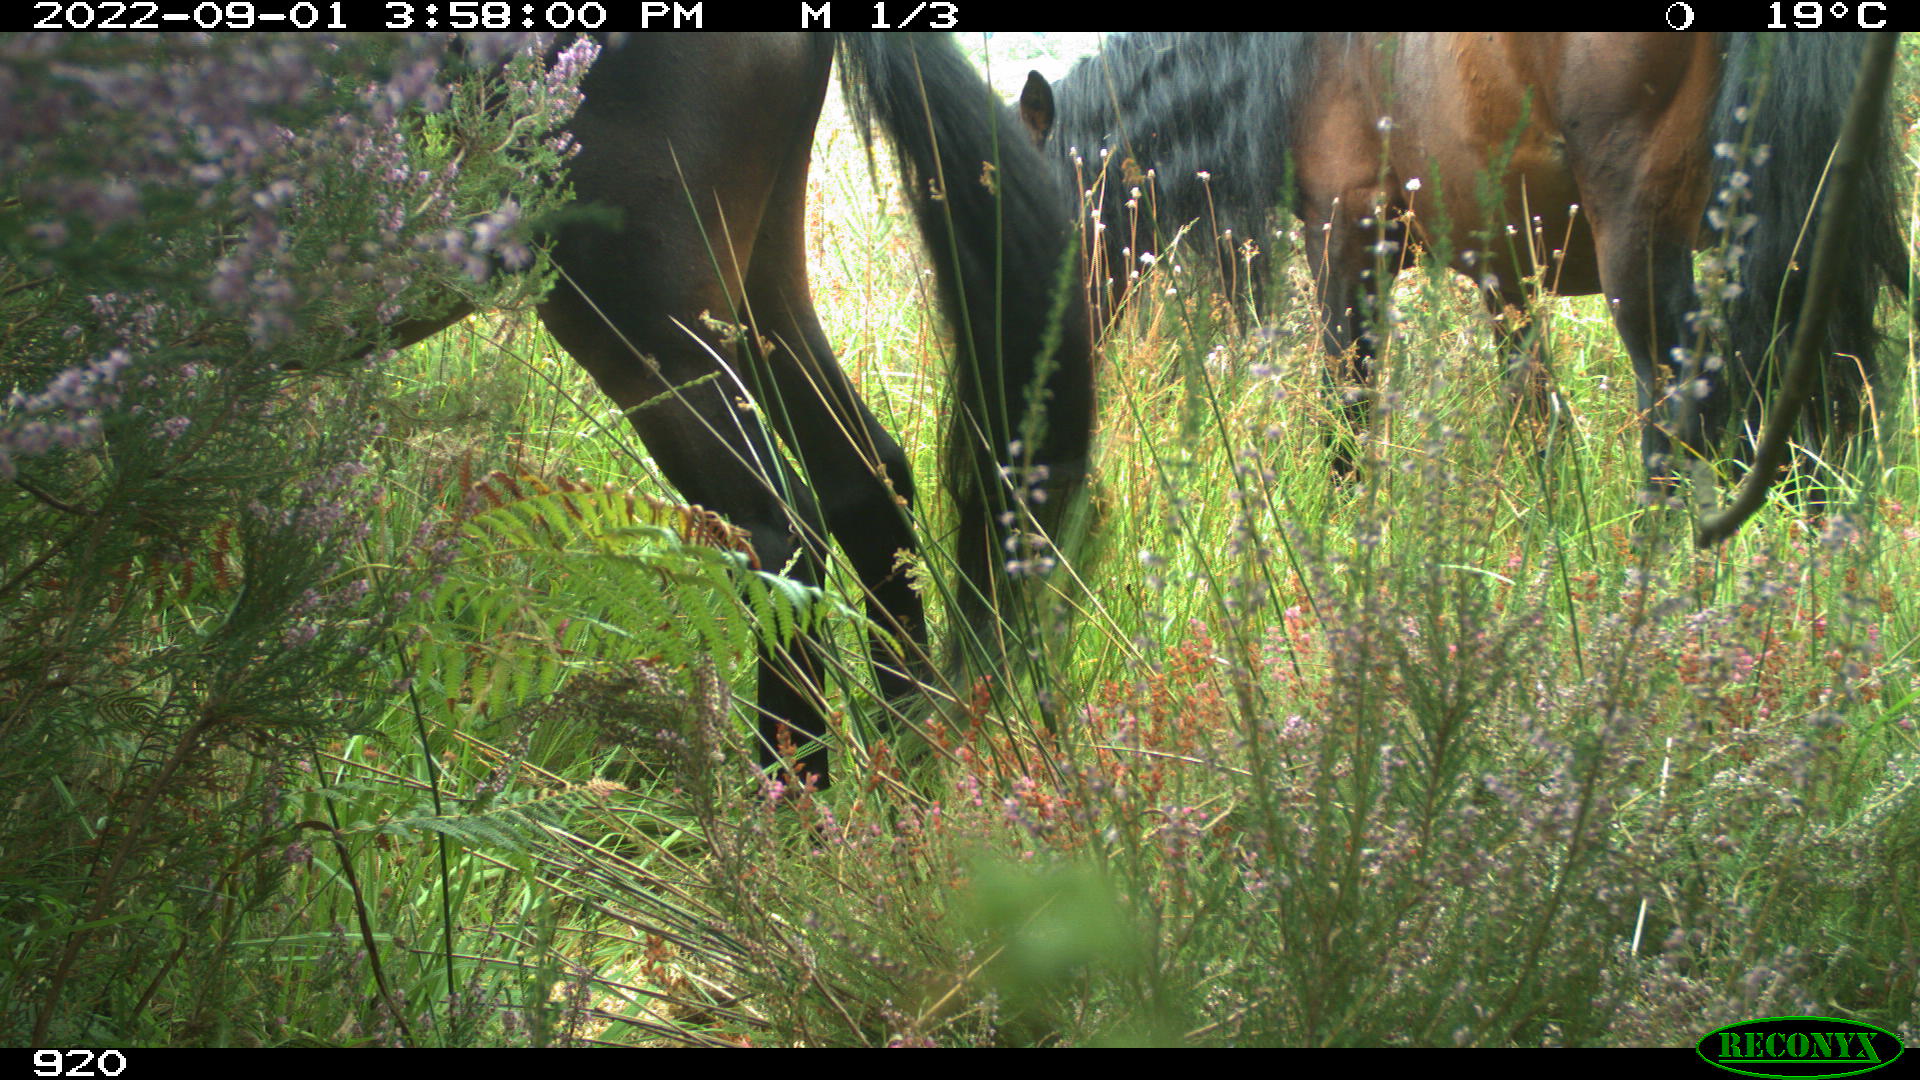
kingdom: Animalia
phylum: Chordata
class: Mammalia
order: Perissodactyla
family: Equidae
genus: Equus
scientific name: Equus caballus
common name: Horse
